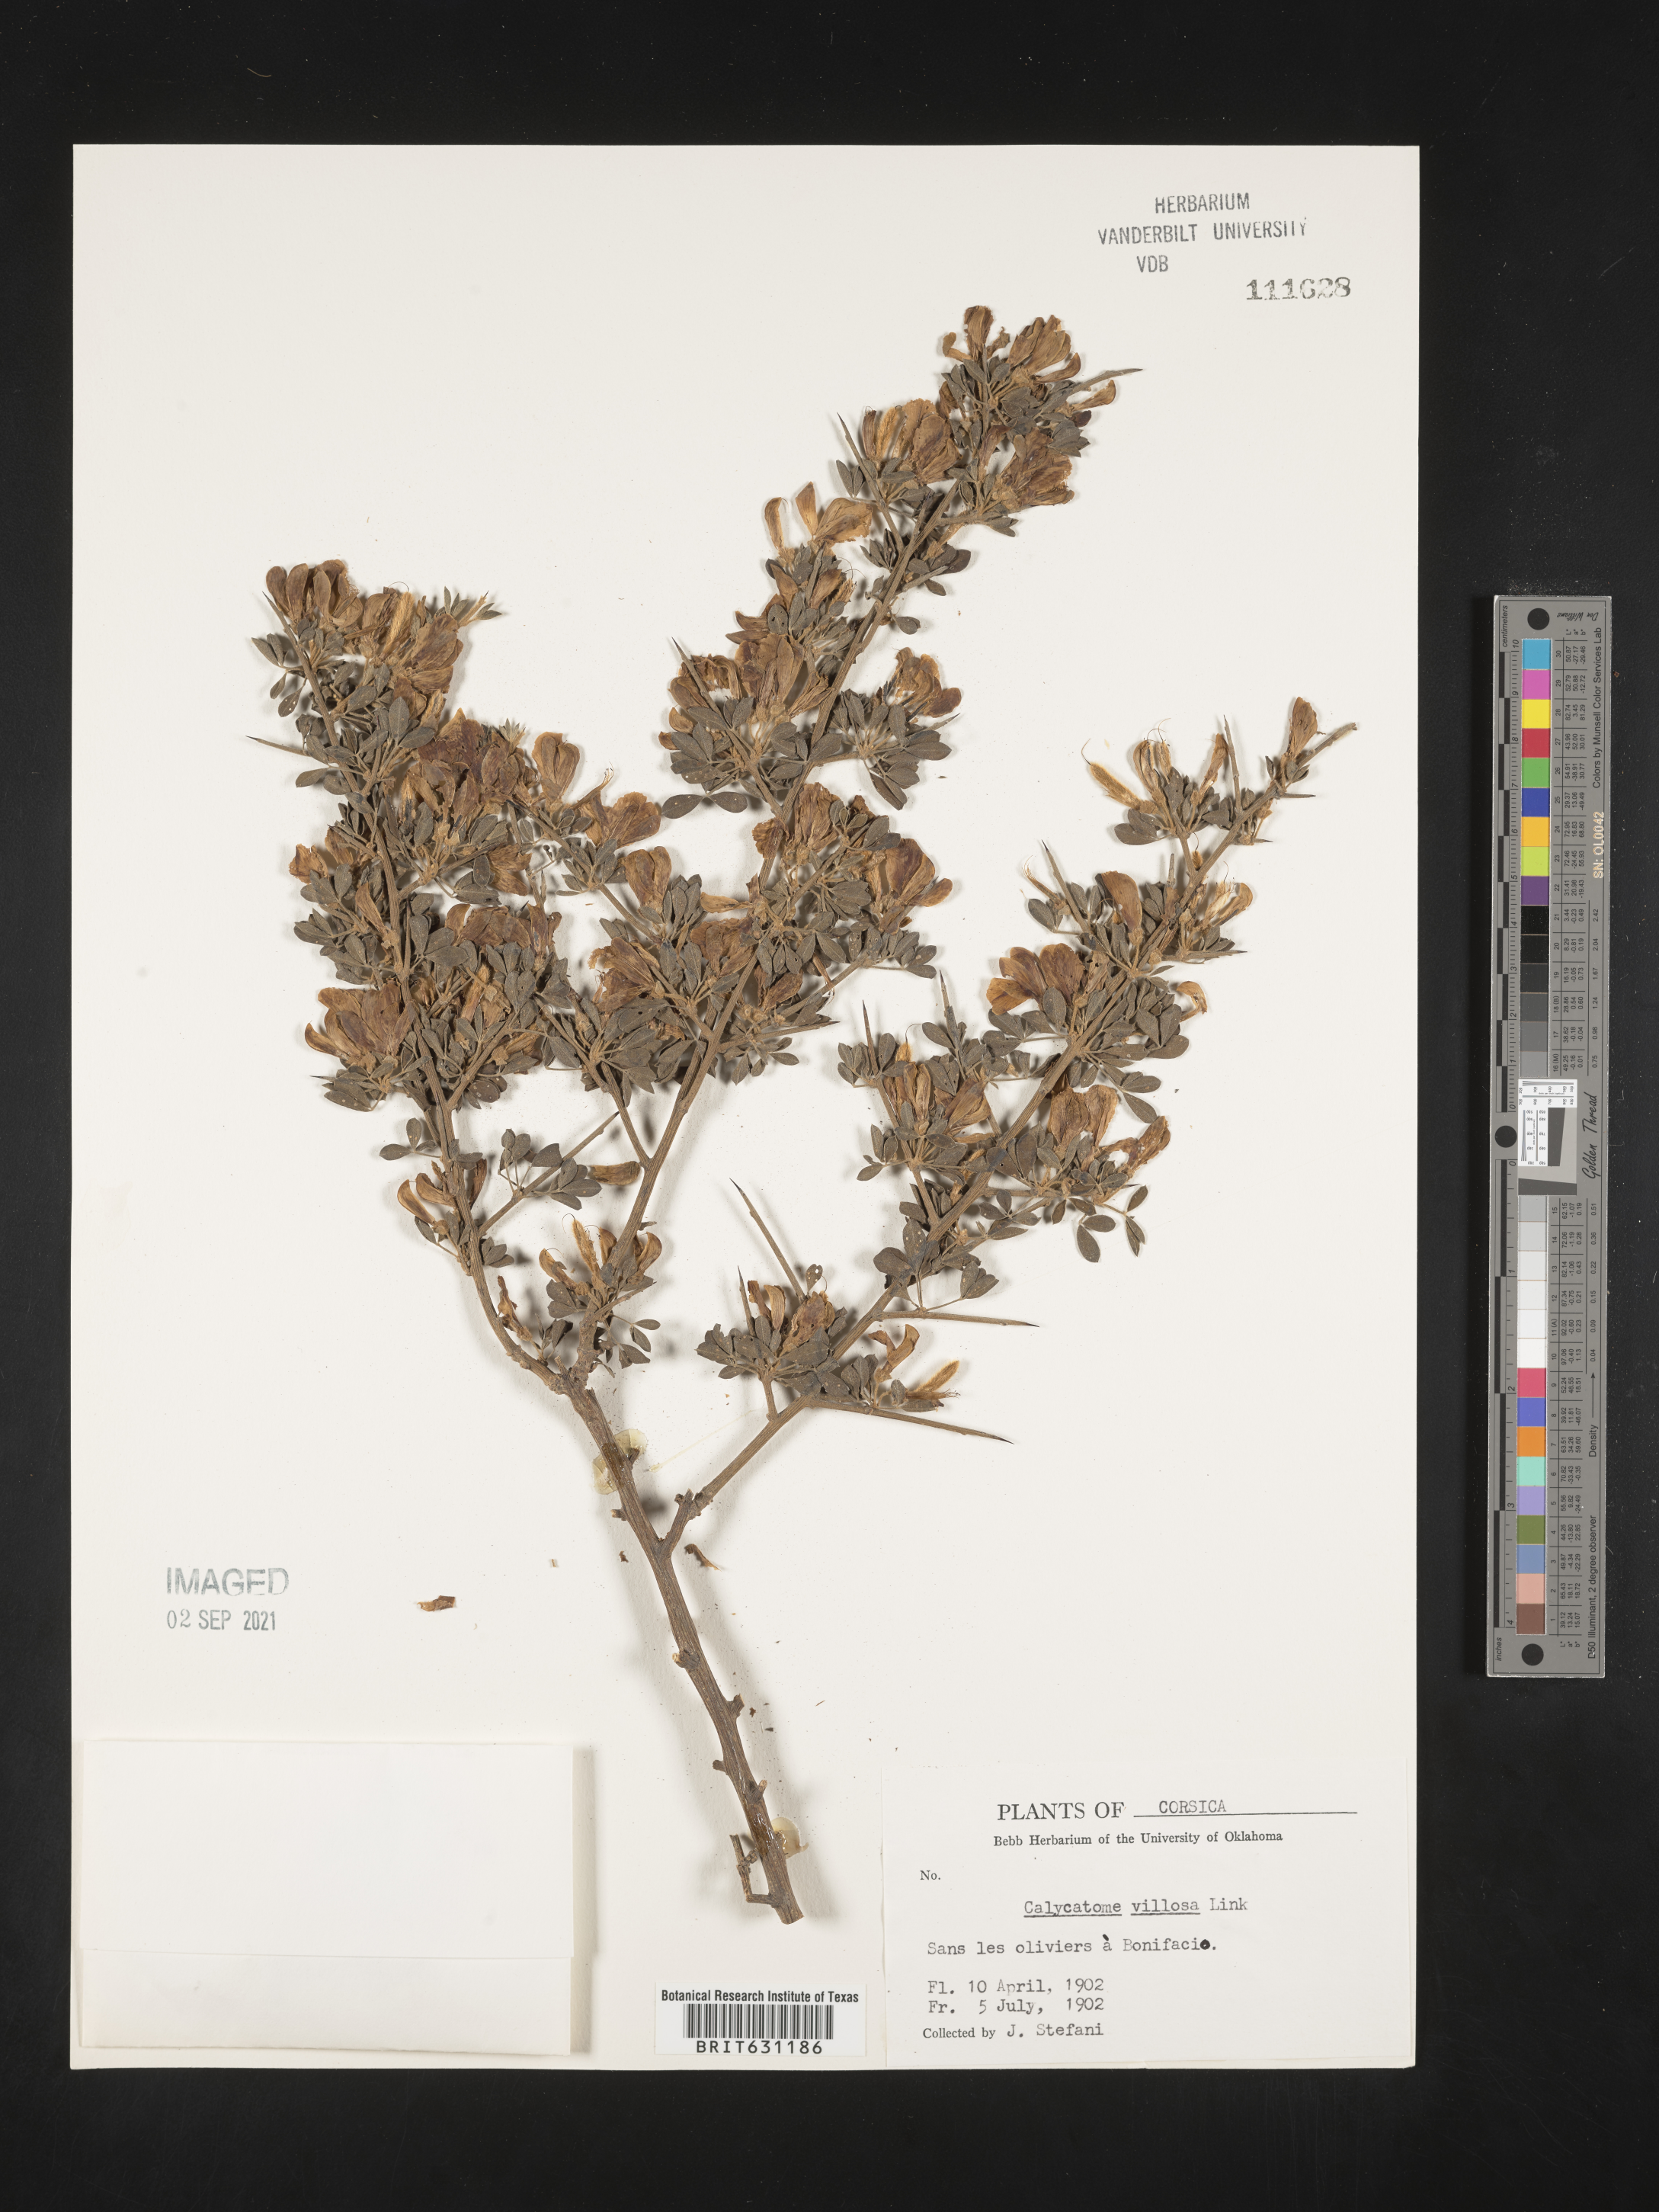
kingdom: Plantae
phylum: Tracheophyta
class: Magnoliopsida
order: Fabales
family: Fabaceae
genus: Calicotome
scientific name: Calicotome villosa
